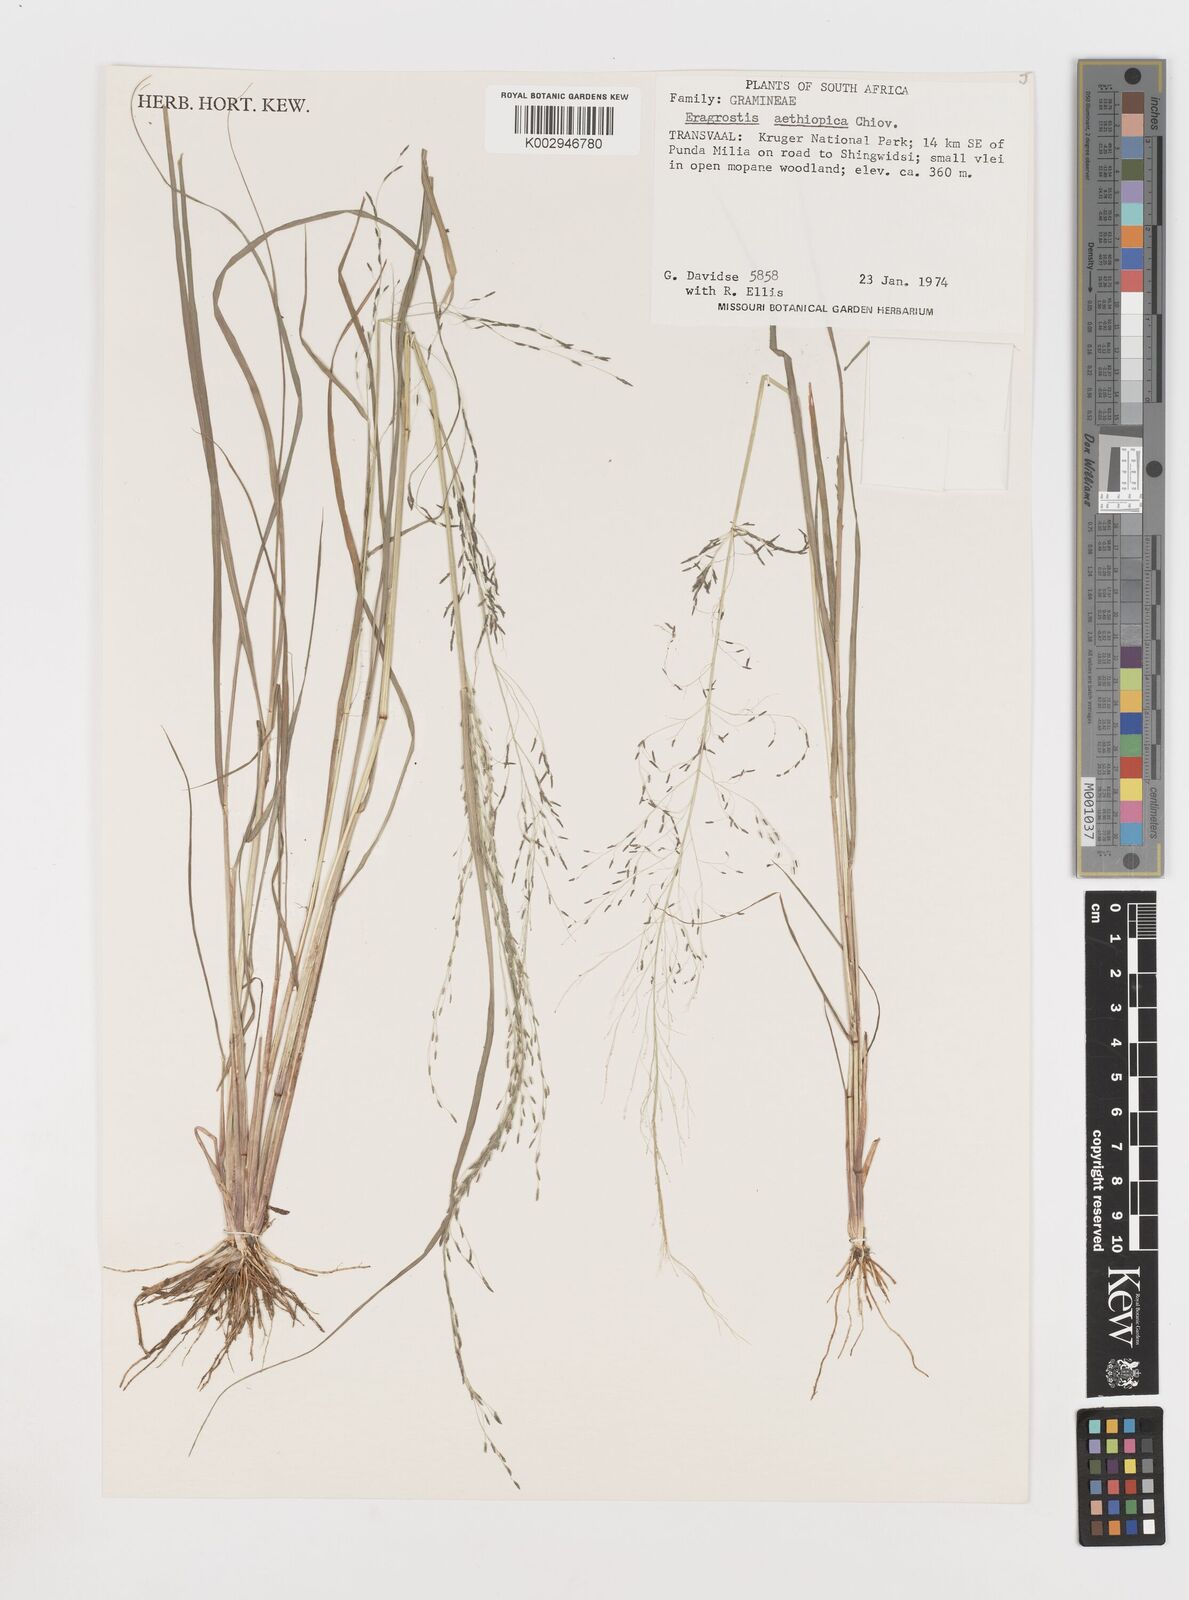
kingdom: Plantae
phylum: Tracheophyta
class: Liliopsida
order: Poales
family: Poaceae
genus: Eragrostis
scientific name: Eragrostis aethiopica
